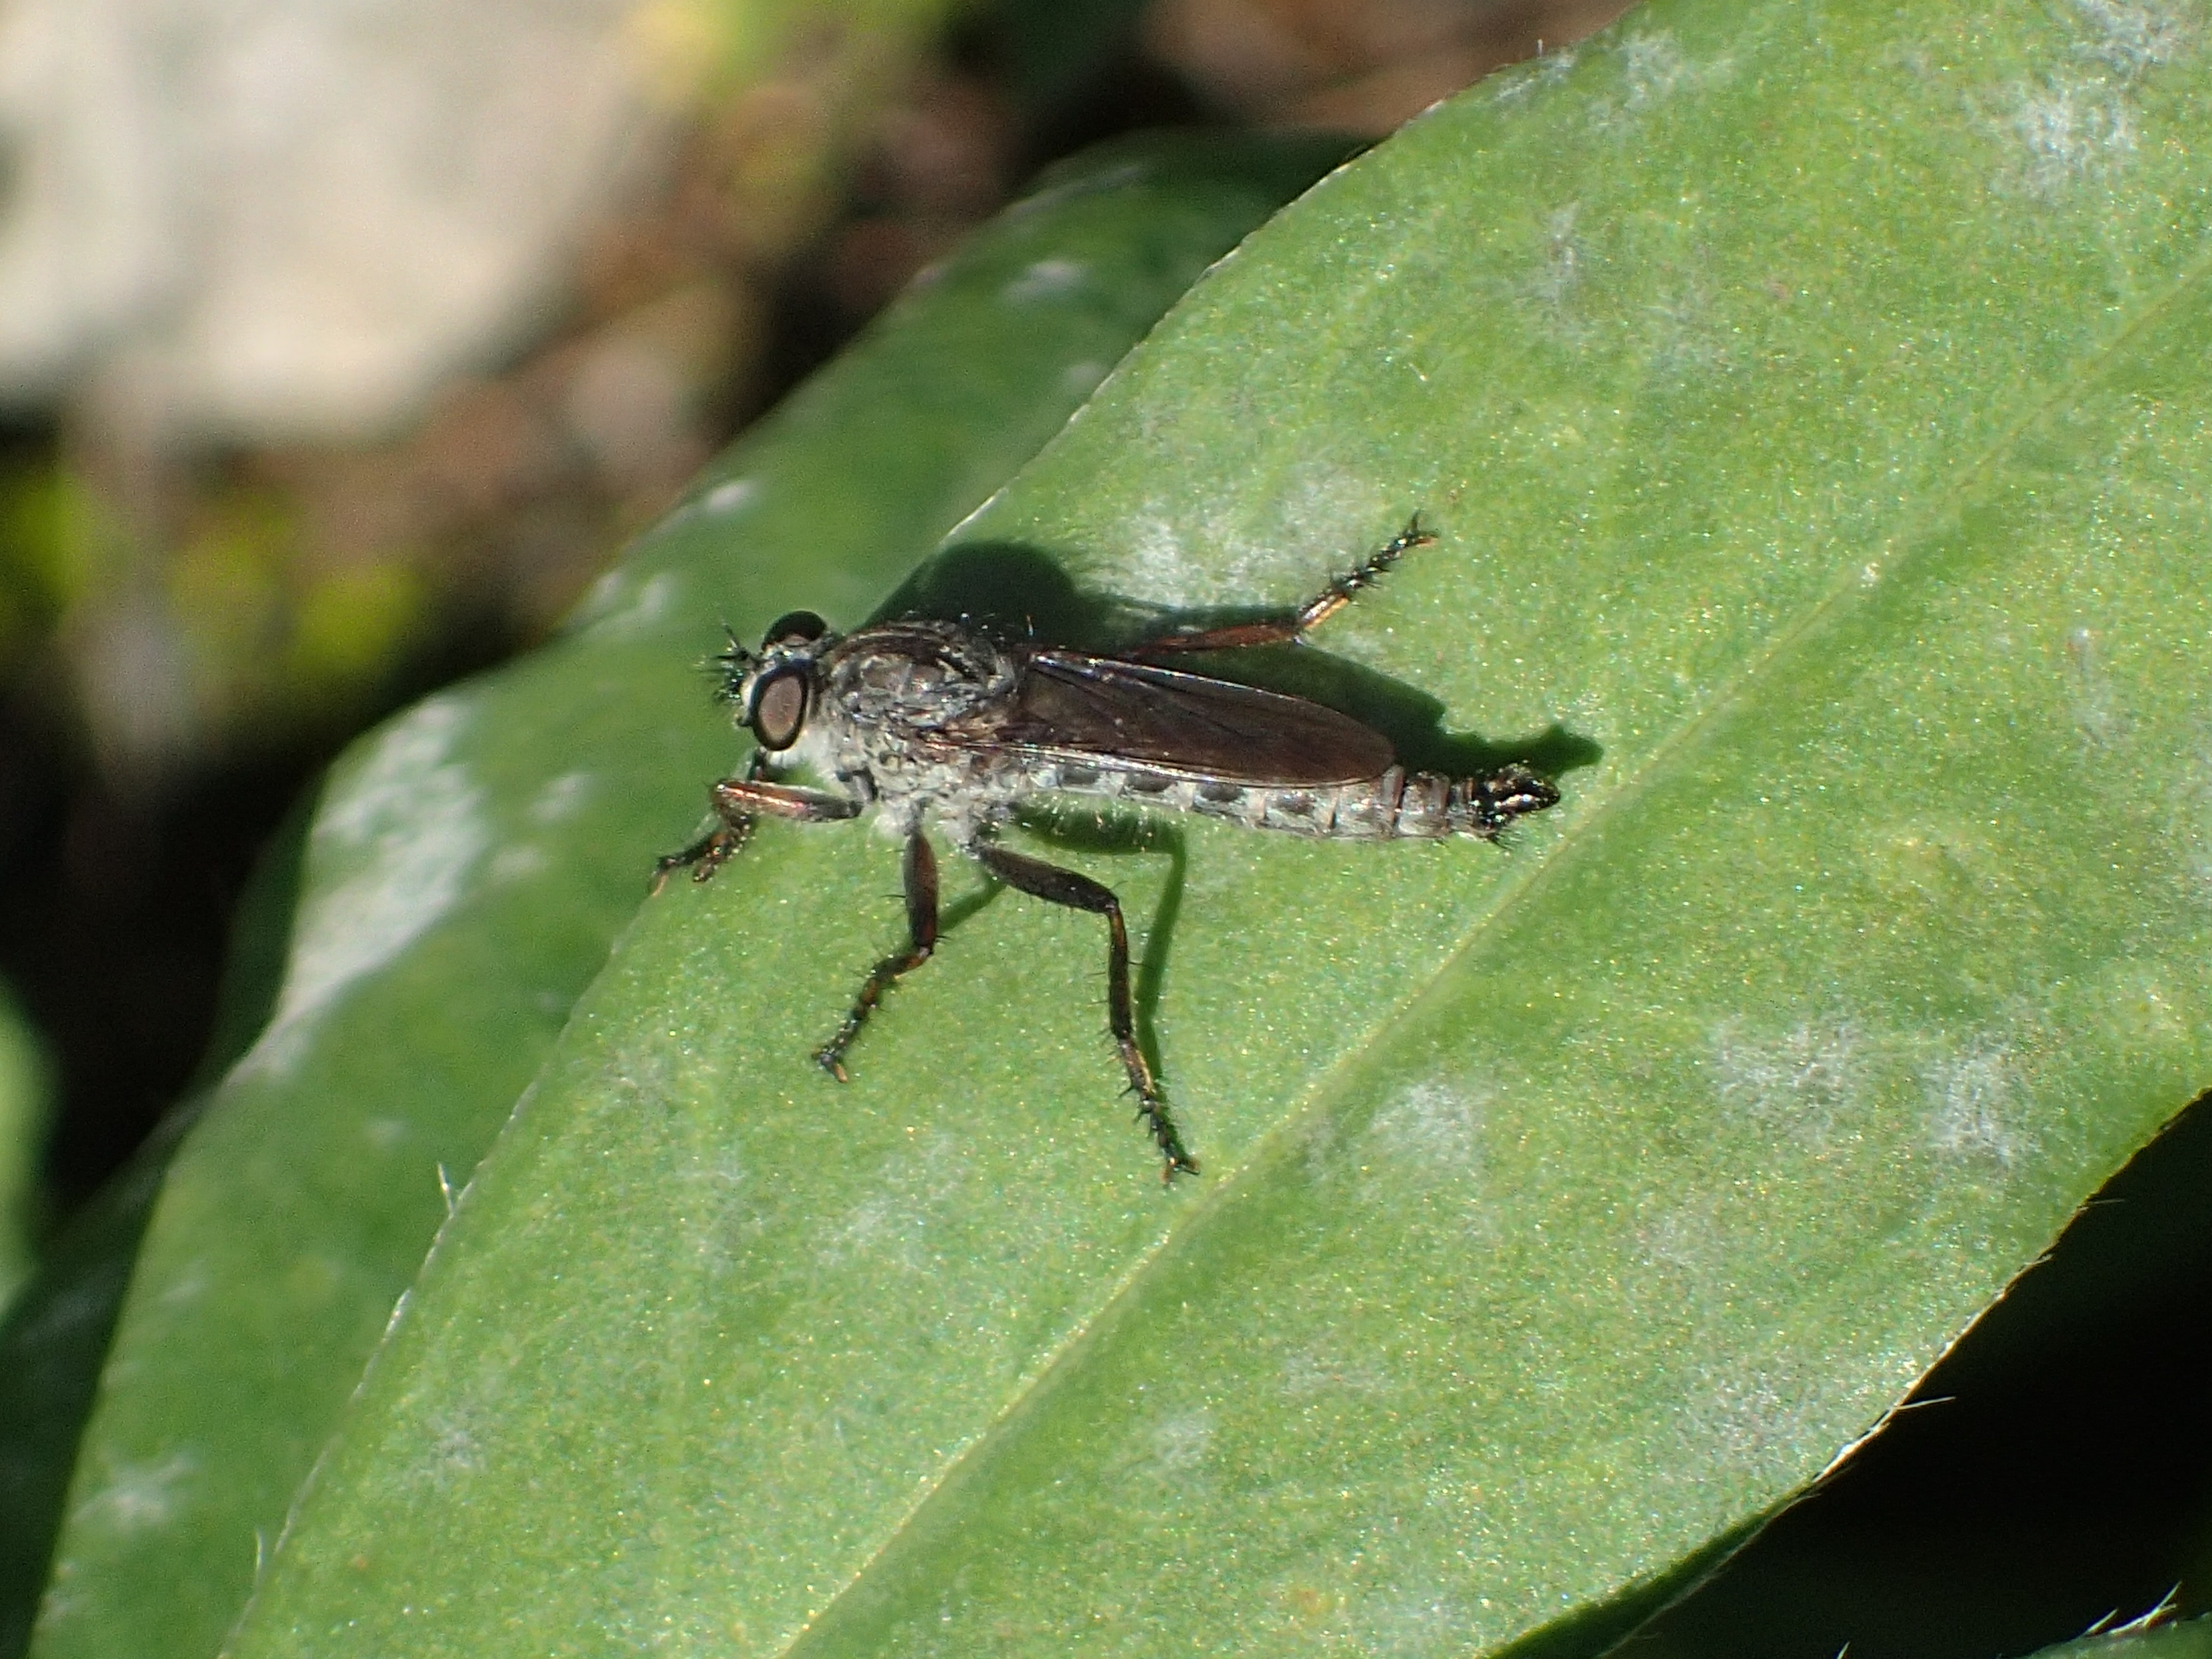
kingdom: Animalia
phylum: Arthropoda
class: Insecta
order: Diptera
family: Asilidae
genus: Machimus
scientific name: Machimus atricapillus
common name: Kite-tailed robberfly
